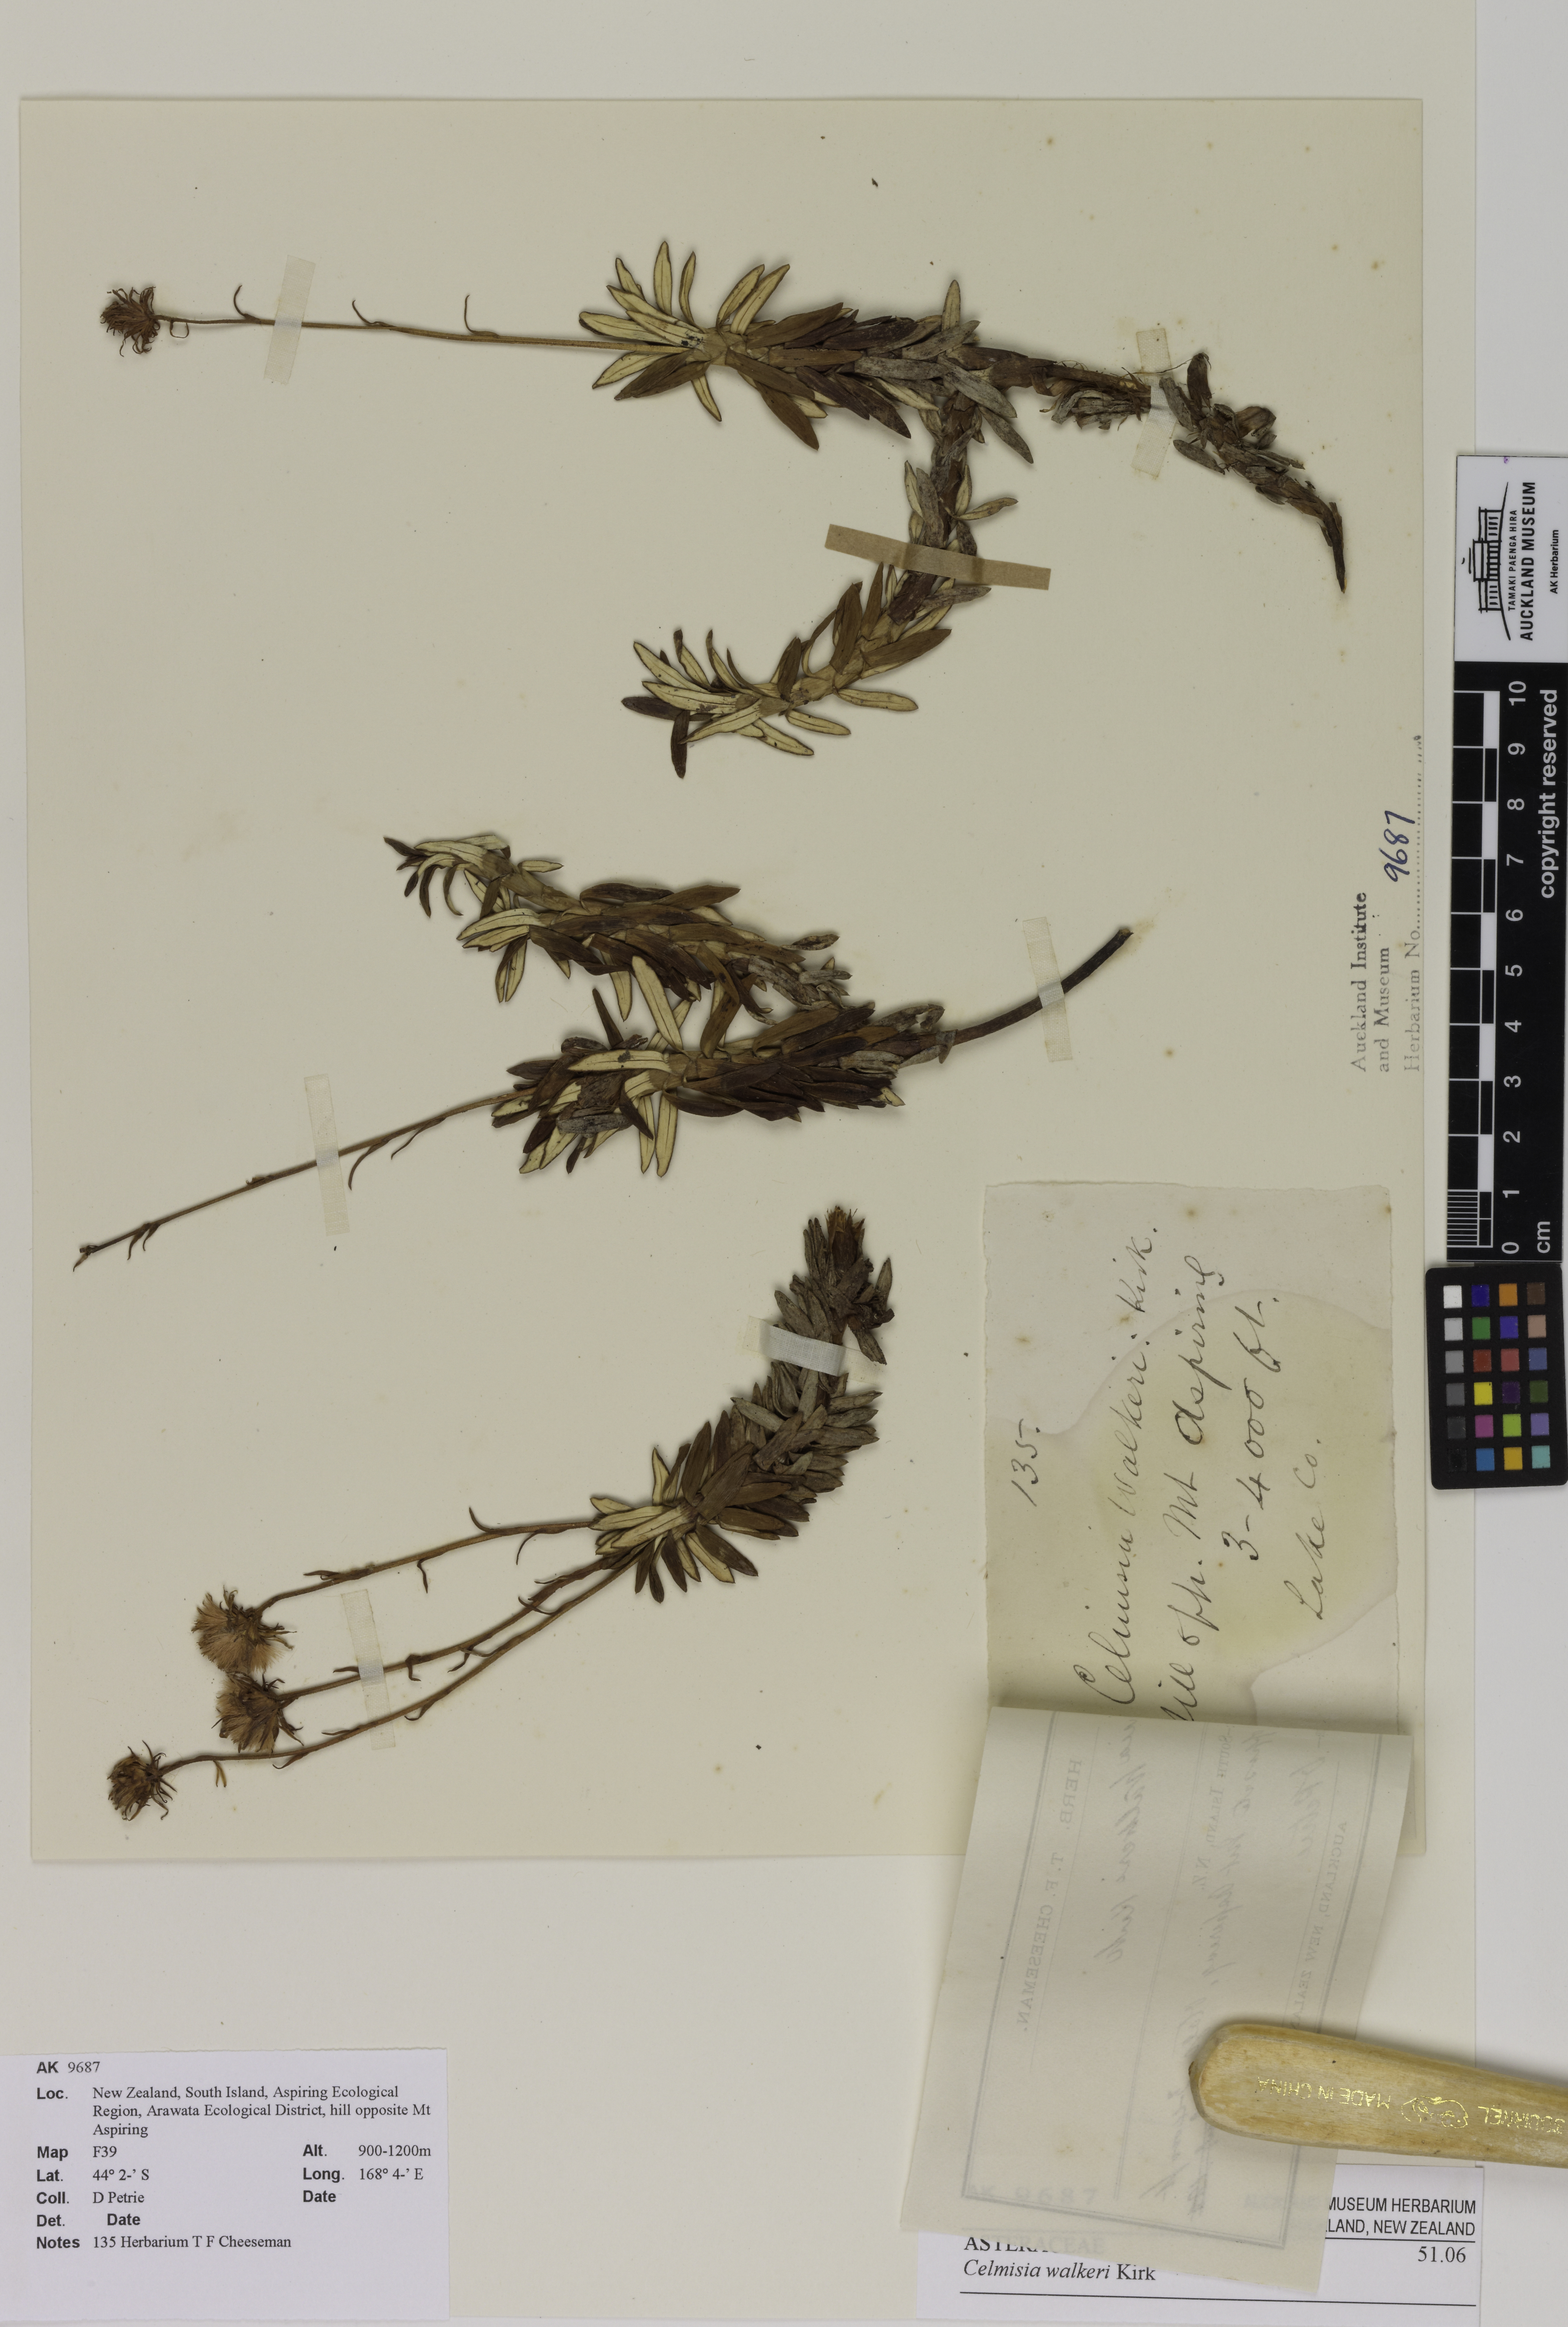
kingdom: Plantae
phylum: Tracheophyta
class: Magnoliopsida
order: Asterales
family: Asteraceae
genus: Celmisia
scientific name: Celmisia walkeri
